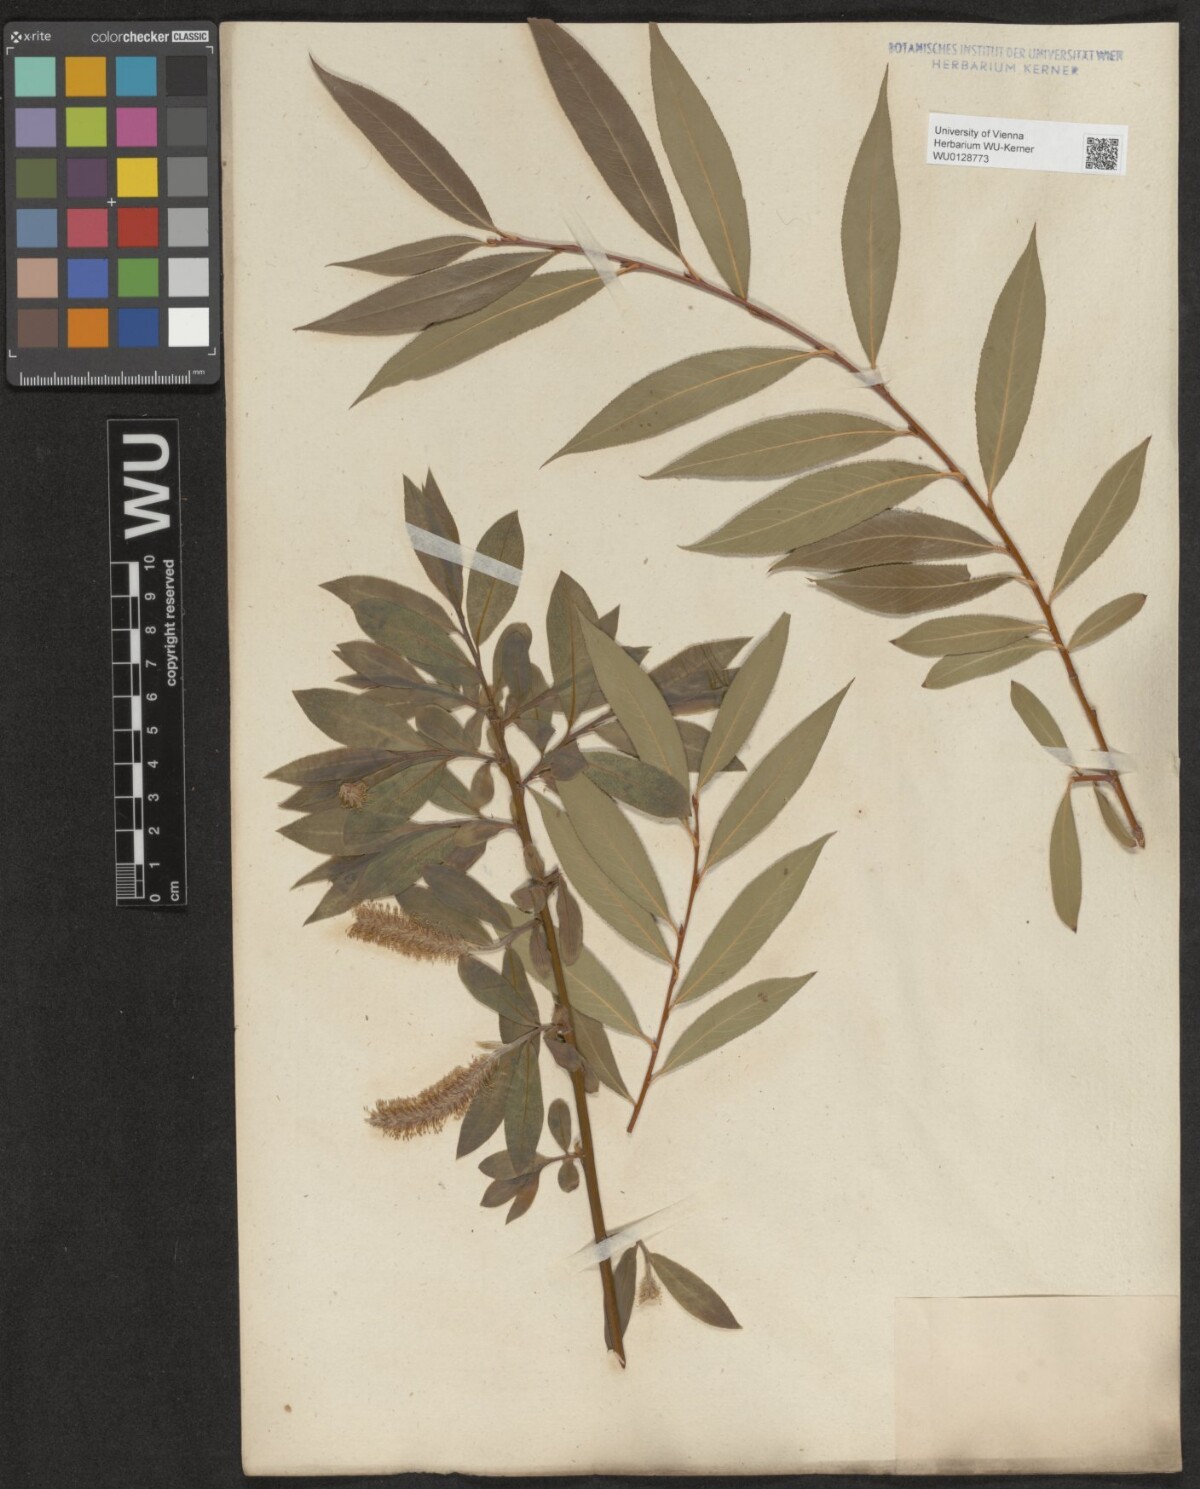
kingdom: Plantae
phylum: Tracheophyta
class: Magnoliopsida
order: Malpighiales
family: Salicaceae
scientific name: Salicaceae
